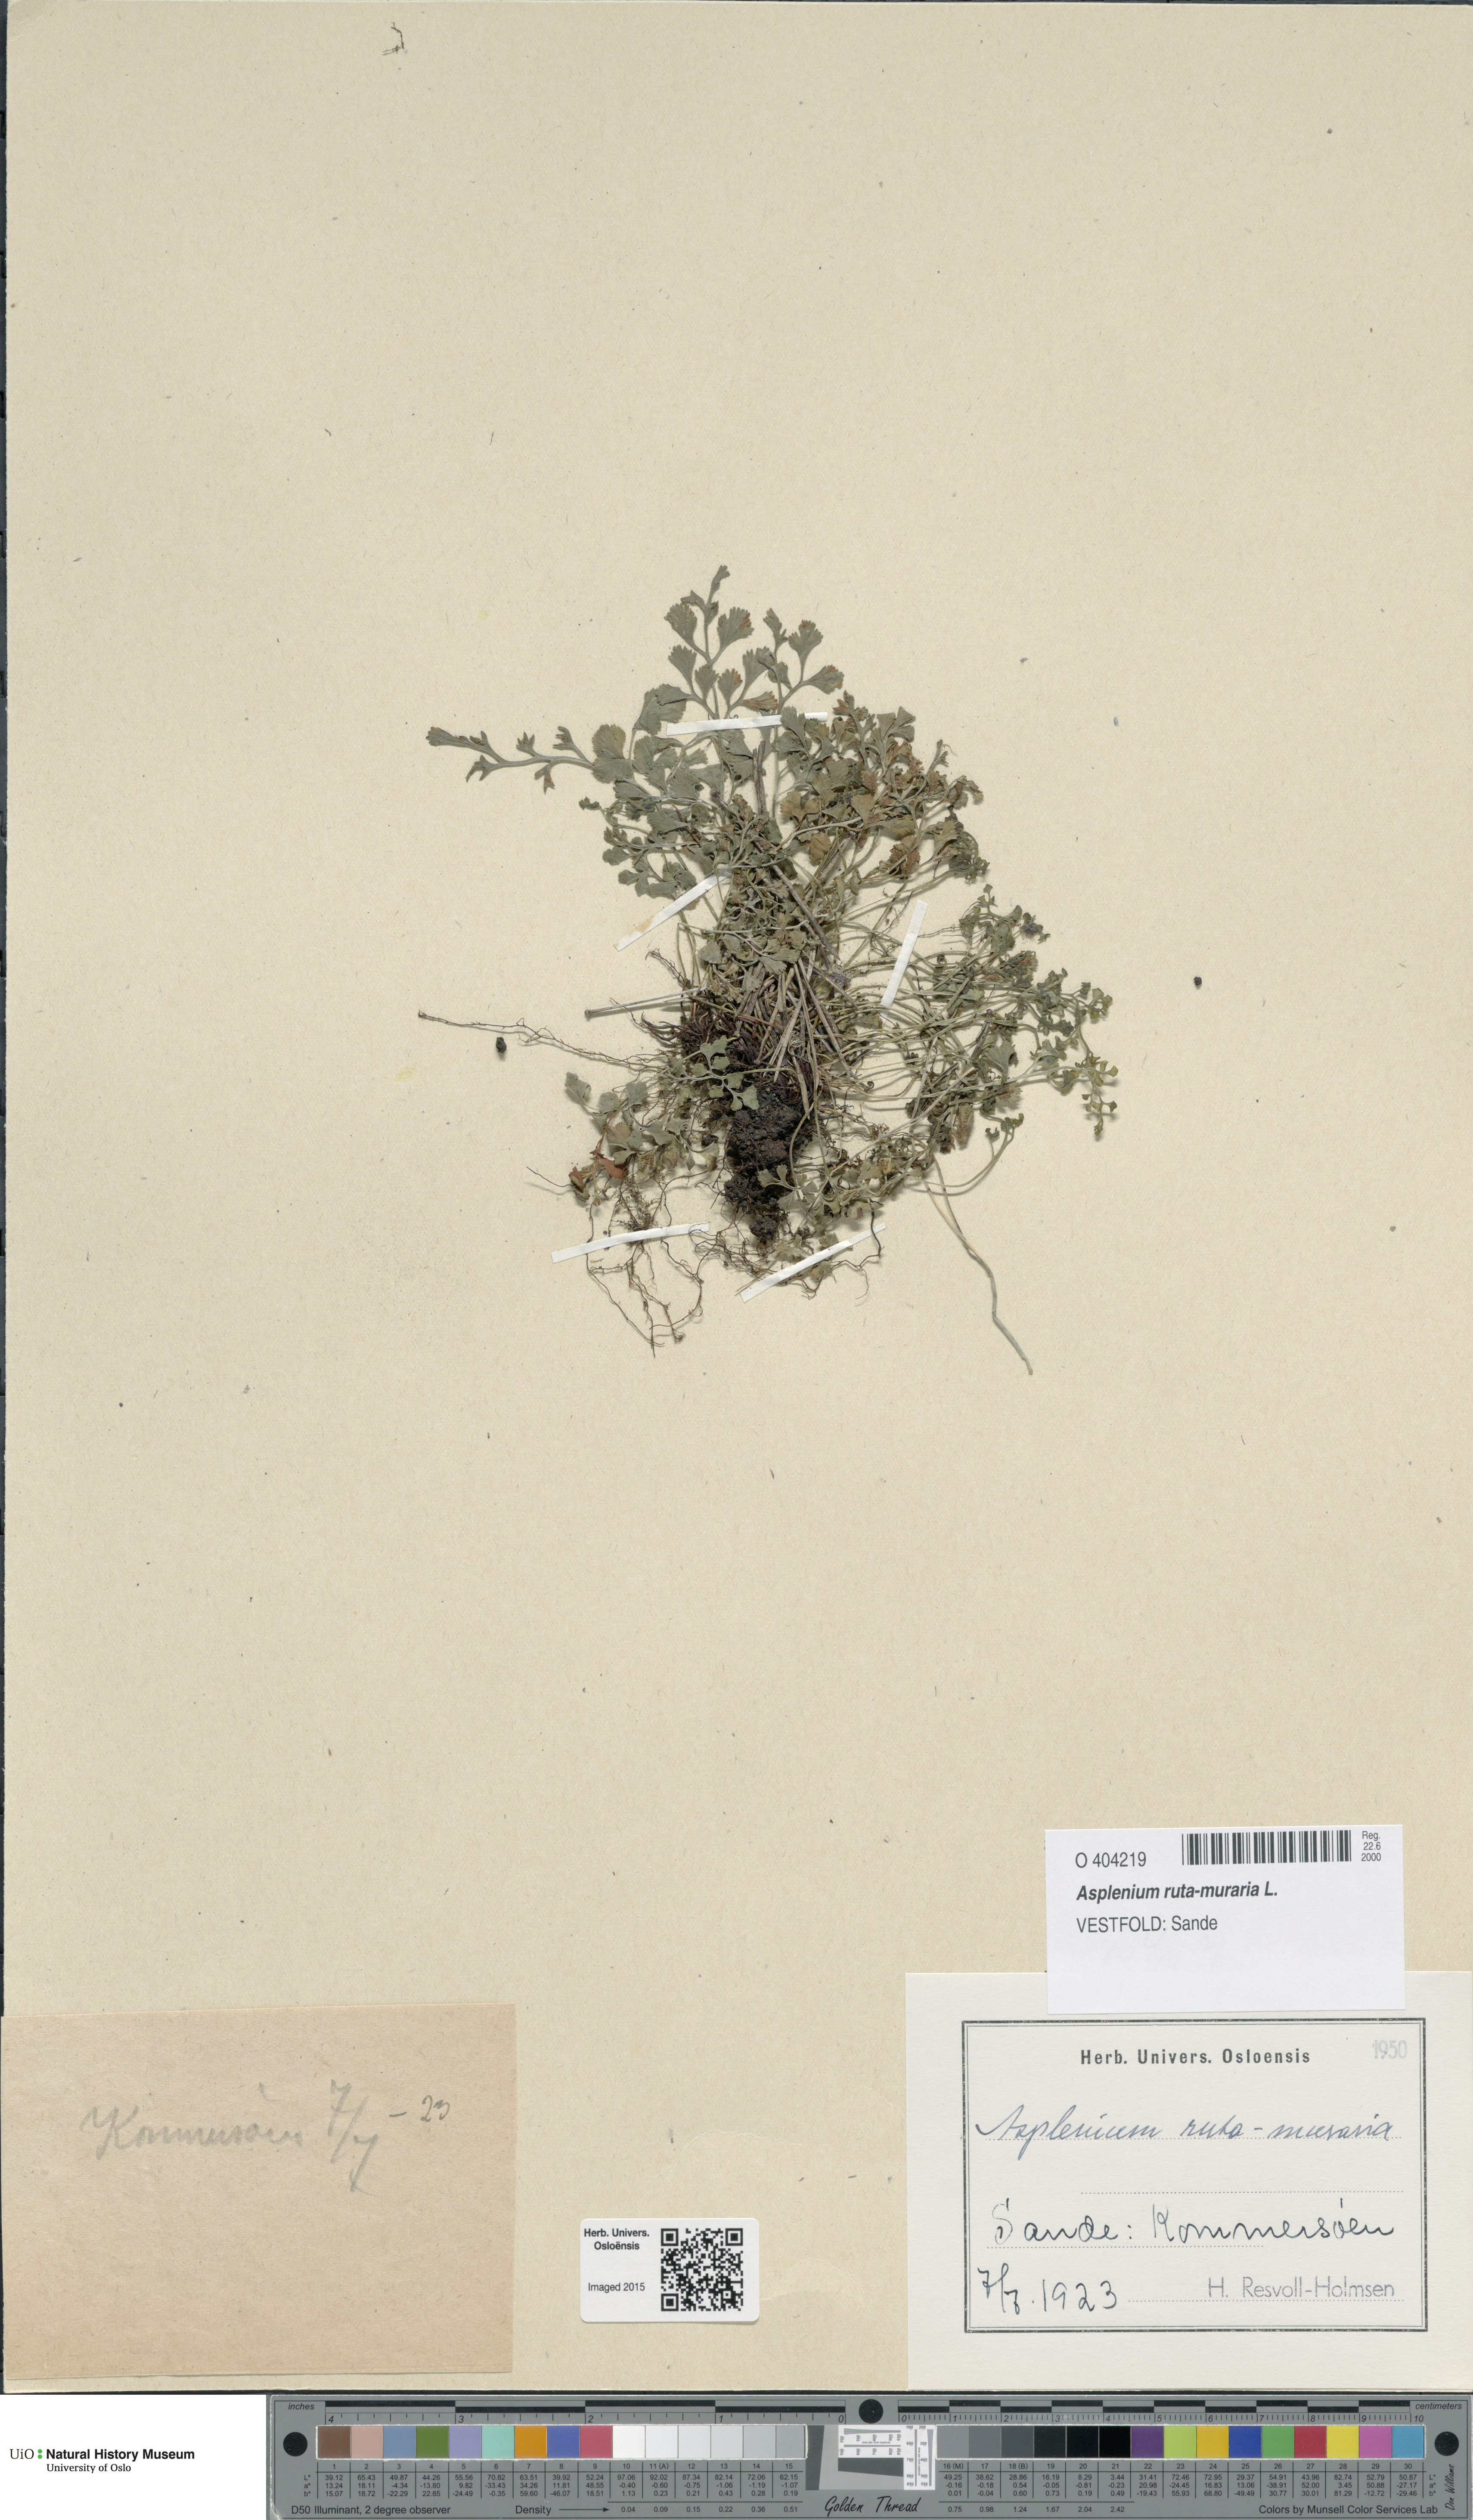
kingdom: Plantae
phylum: Tracheophyta
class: Polypodiopsida
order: Polypodiales
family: Aspleniaceae
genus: Asplenium
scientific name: Asplenium ruta-muraria
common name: Wall-rue
